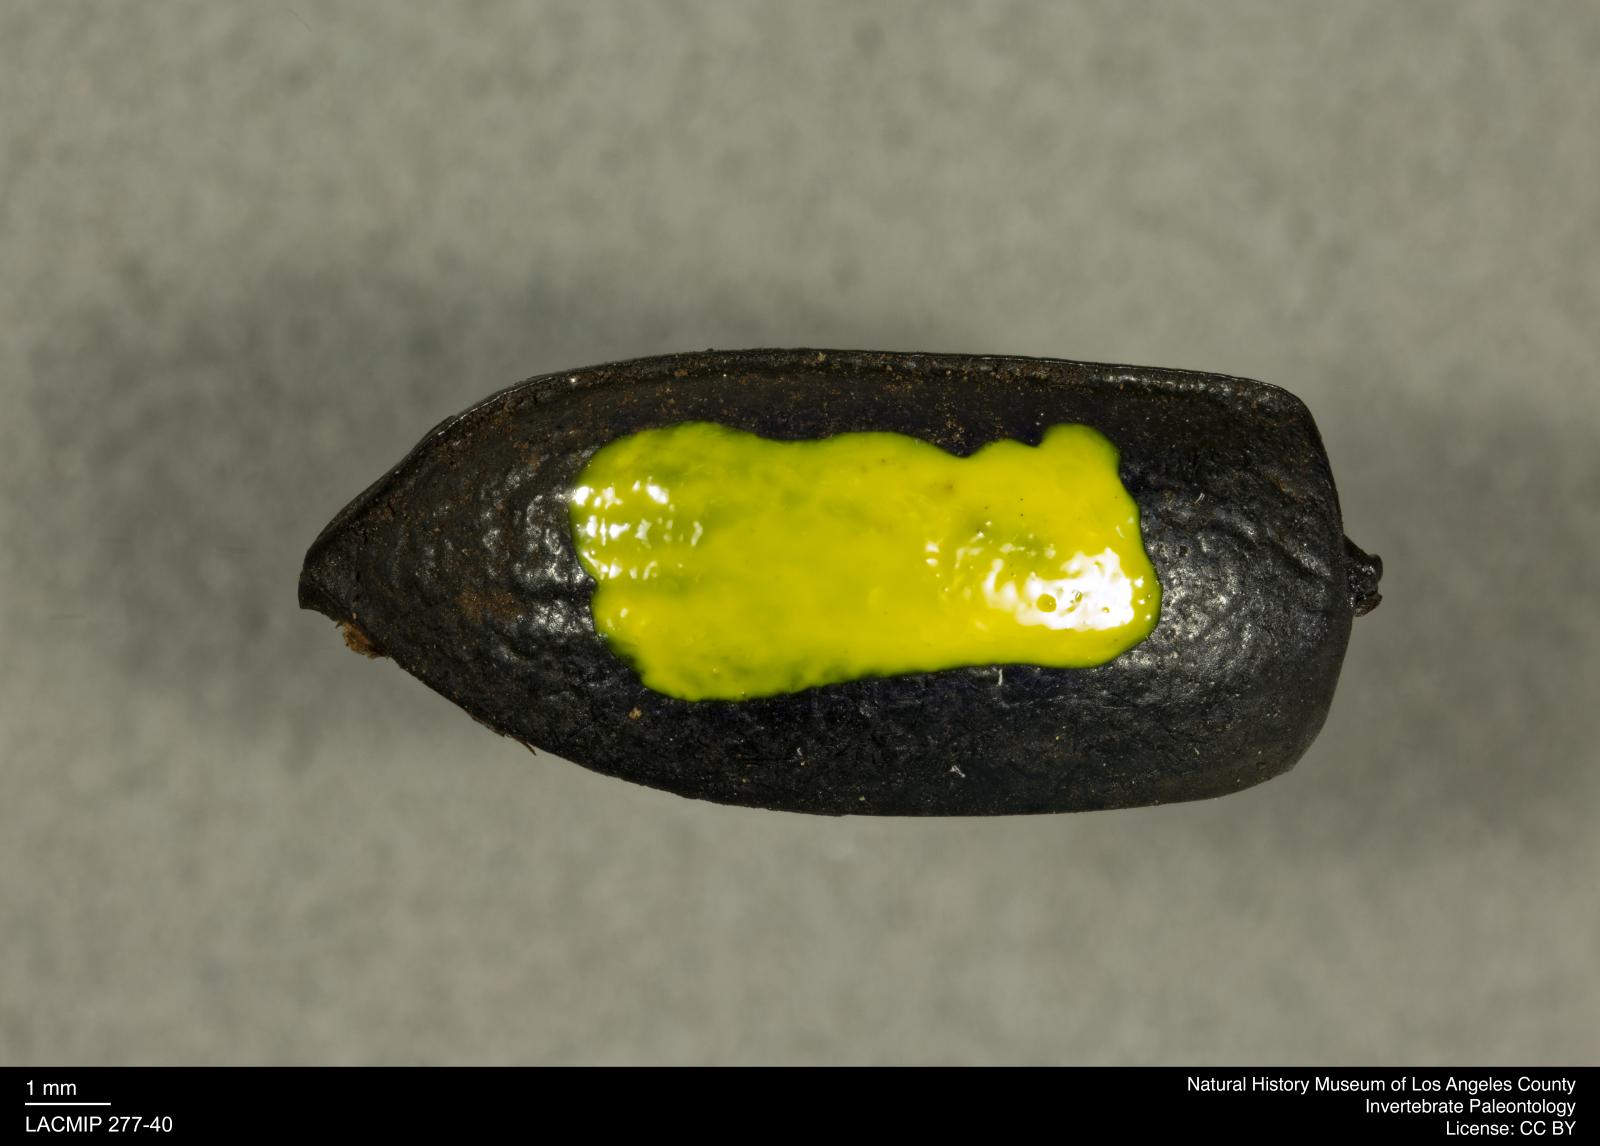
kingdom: Animalia
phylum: Arthropoda
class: Insecta
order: Coleoptera
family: Tenebrionidae
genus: Coniontis
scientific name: Coniontis abdominalis
